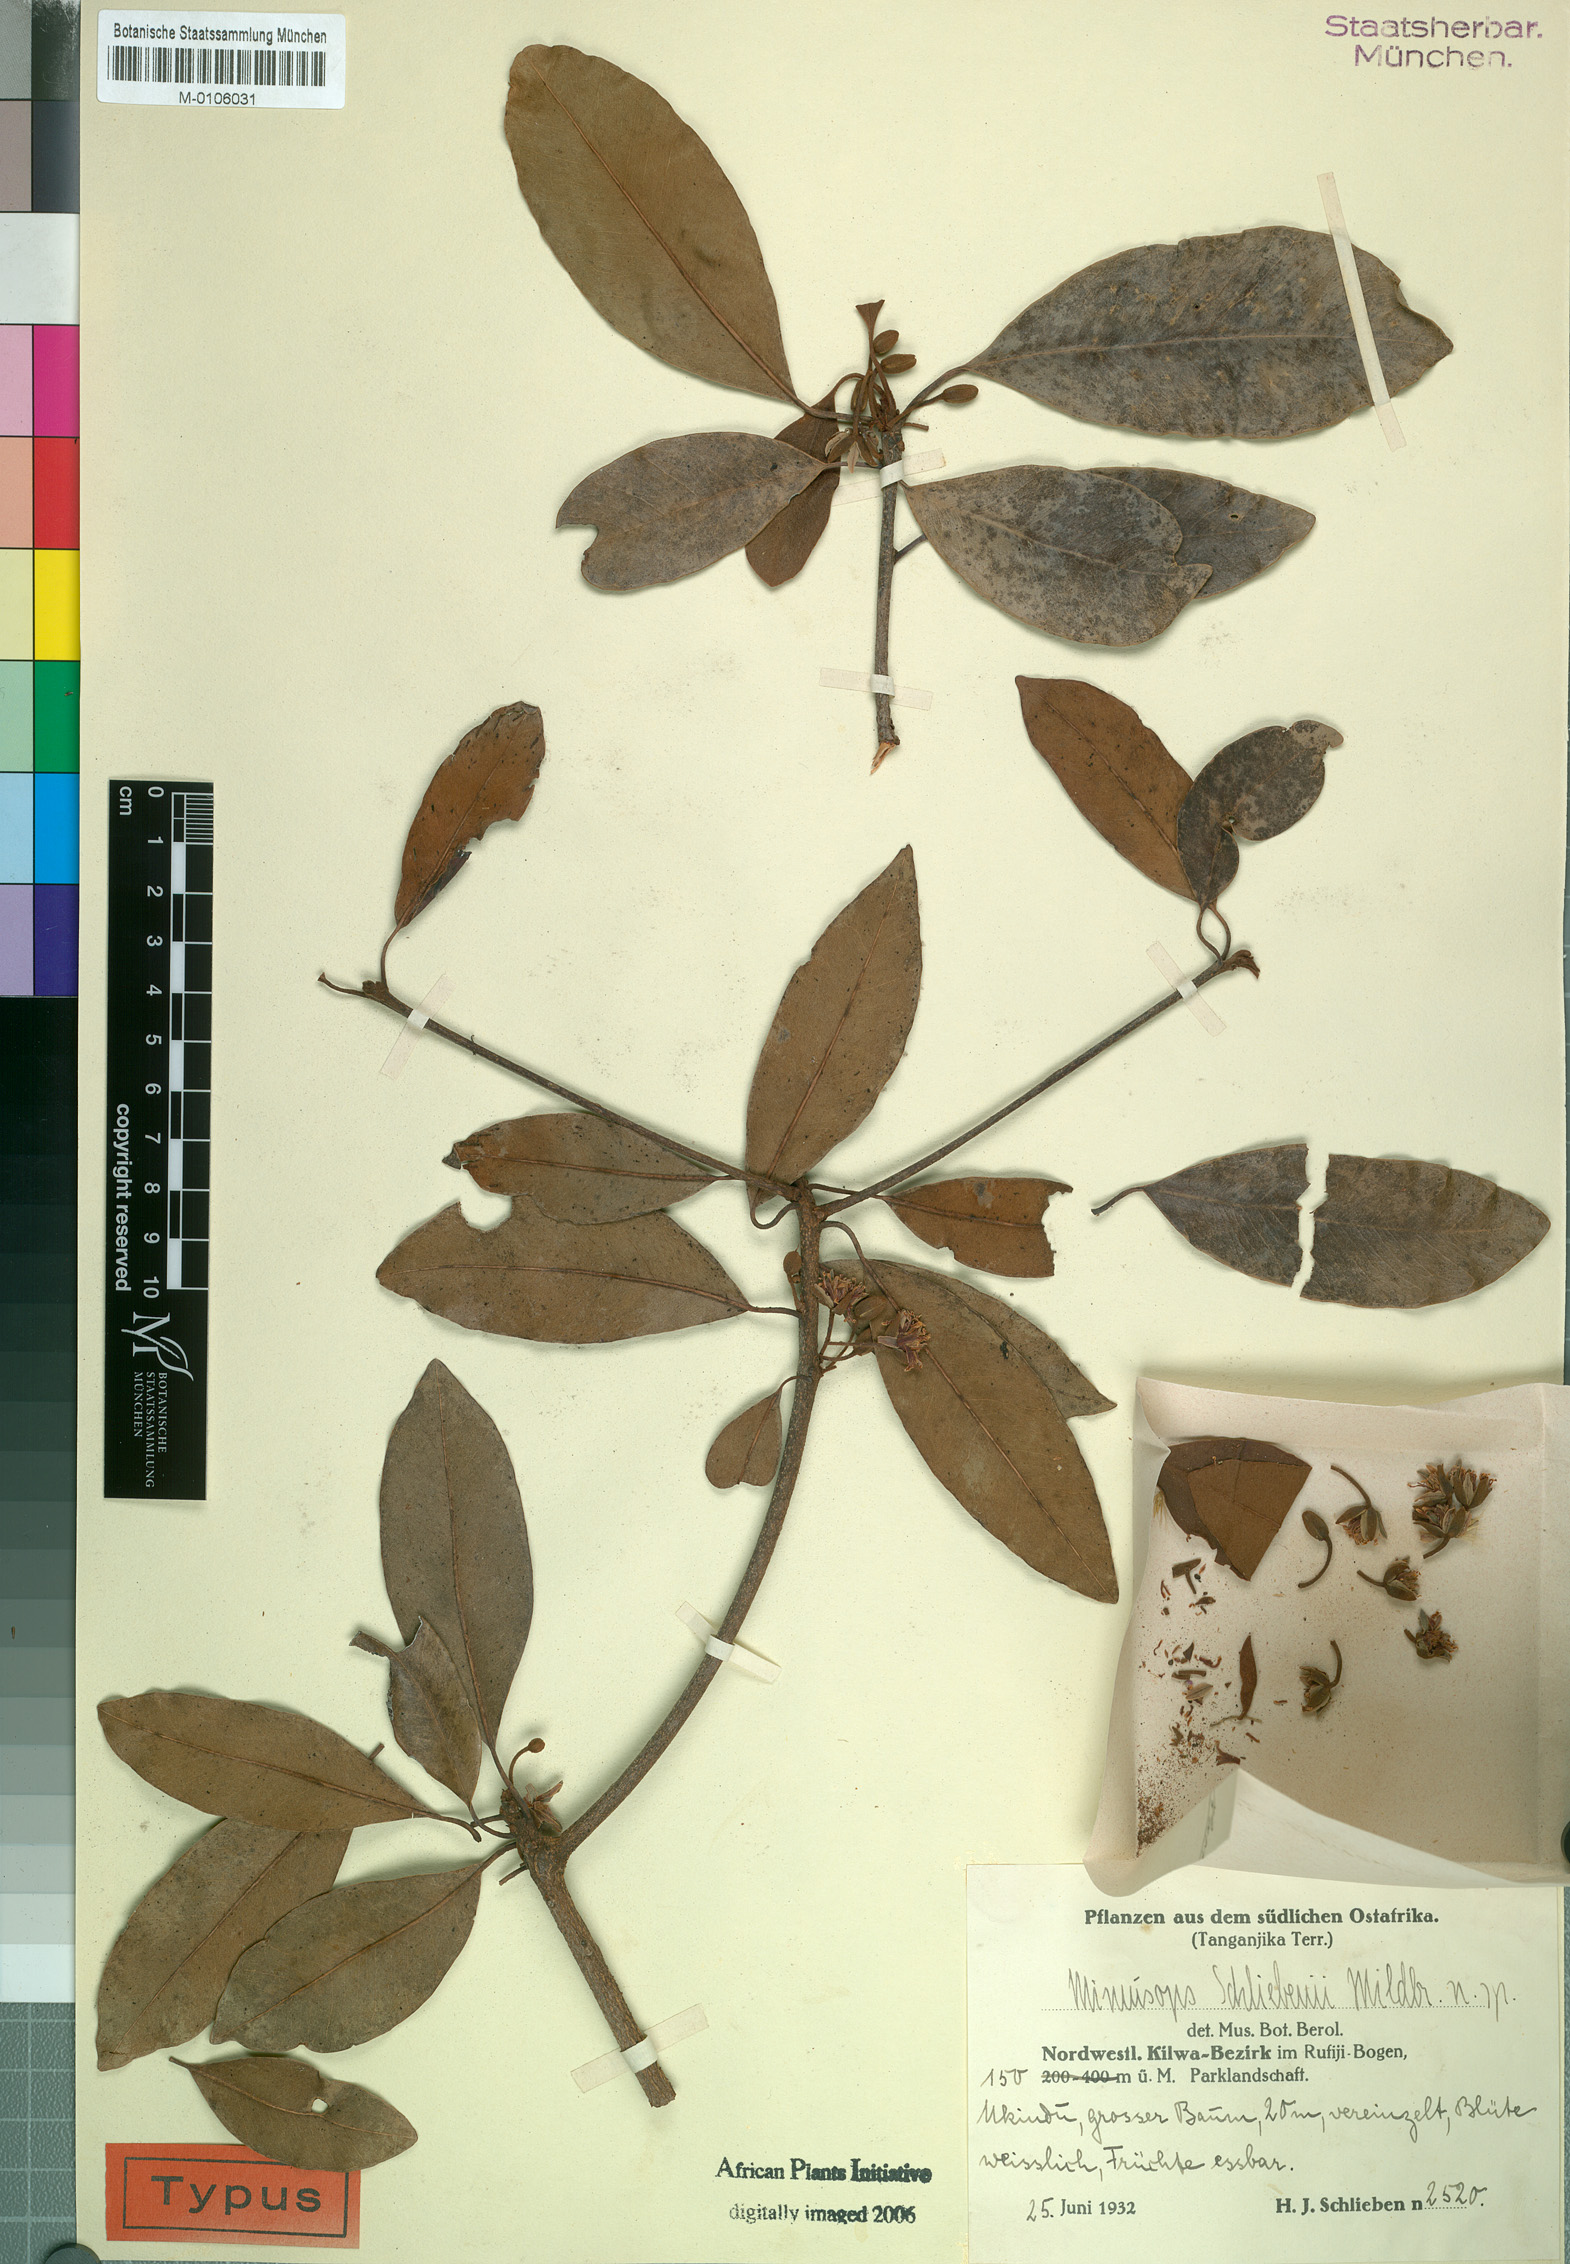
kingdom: Plantae
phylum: Tracheophyta
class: Magnoliopsida
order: Ericales
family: Sapotaceae
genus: Mimusops
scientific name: Mimusops somalensis
